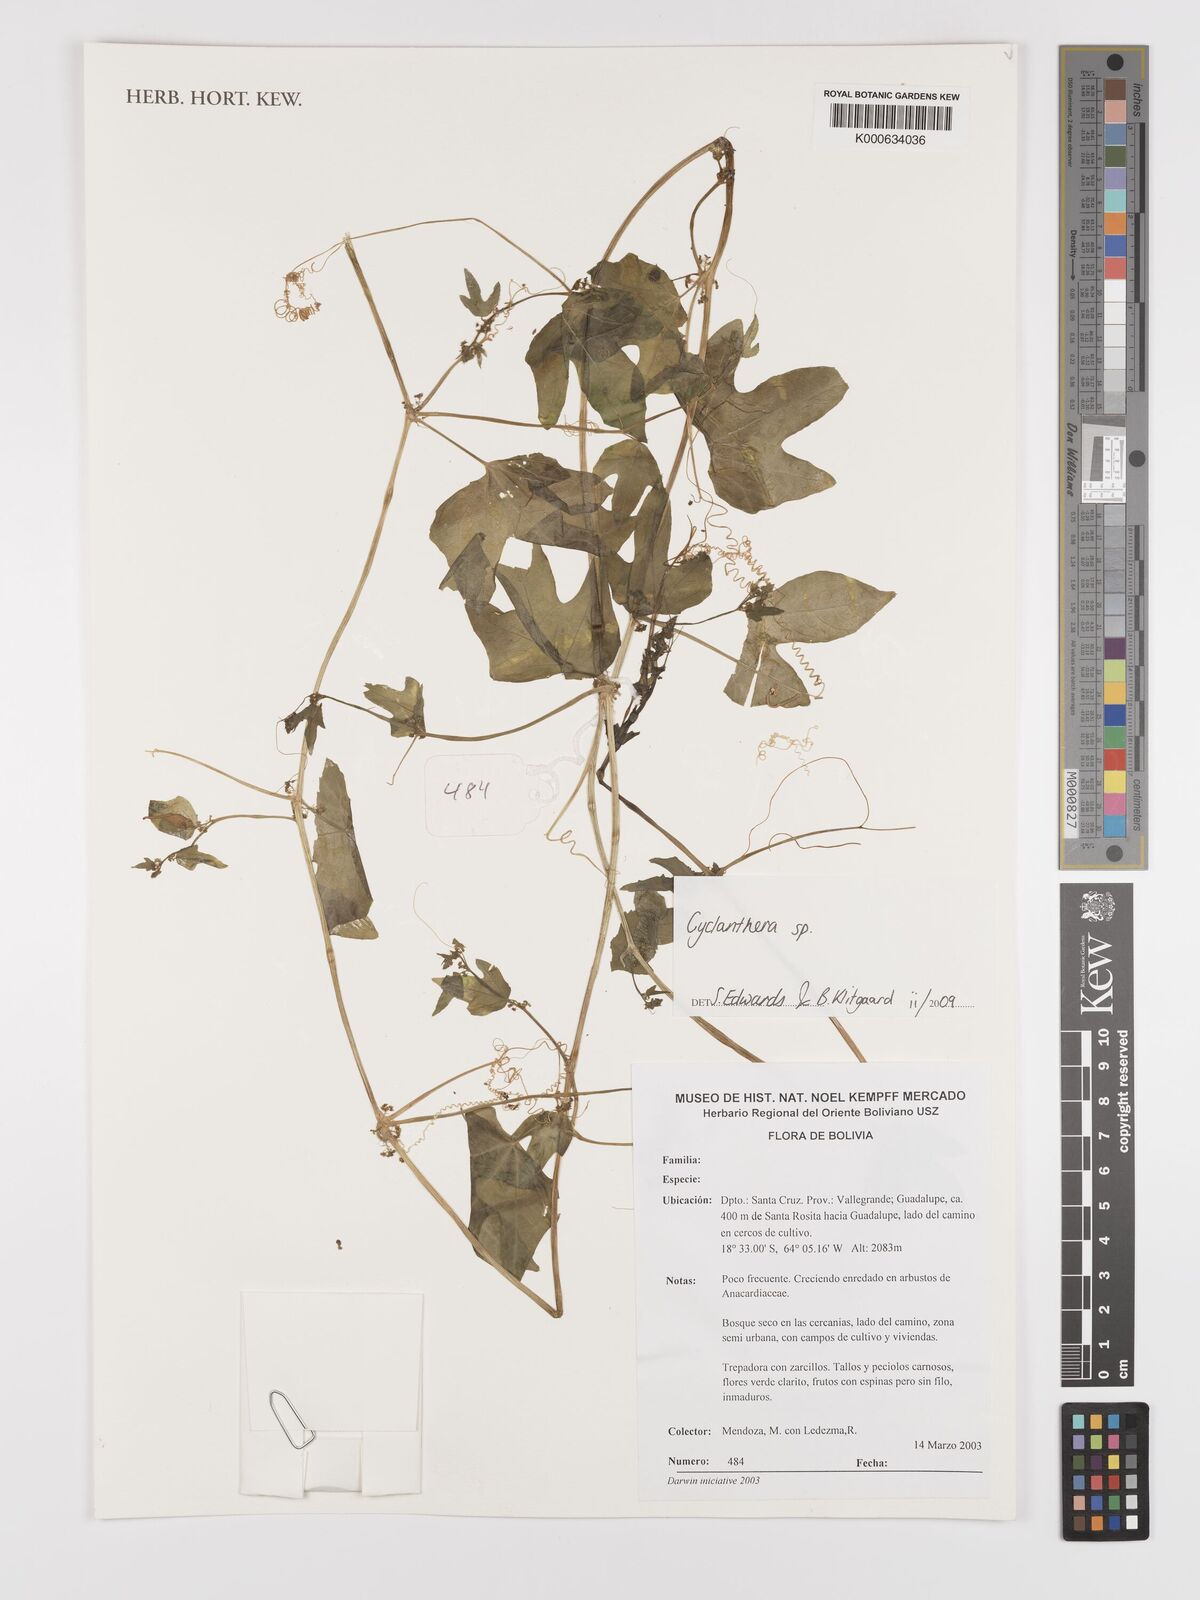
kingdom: Plantae
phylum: Tracheophyta
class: Magnoliopsida
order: Cucurbitales
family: Cucurbitaceae
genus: Cyclanthera
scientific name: Cyclanthera
